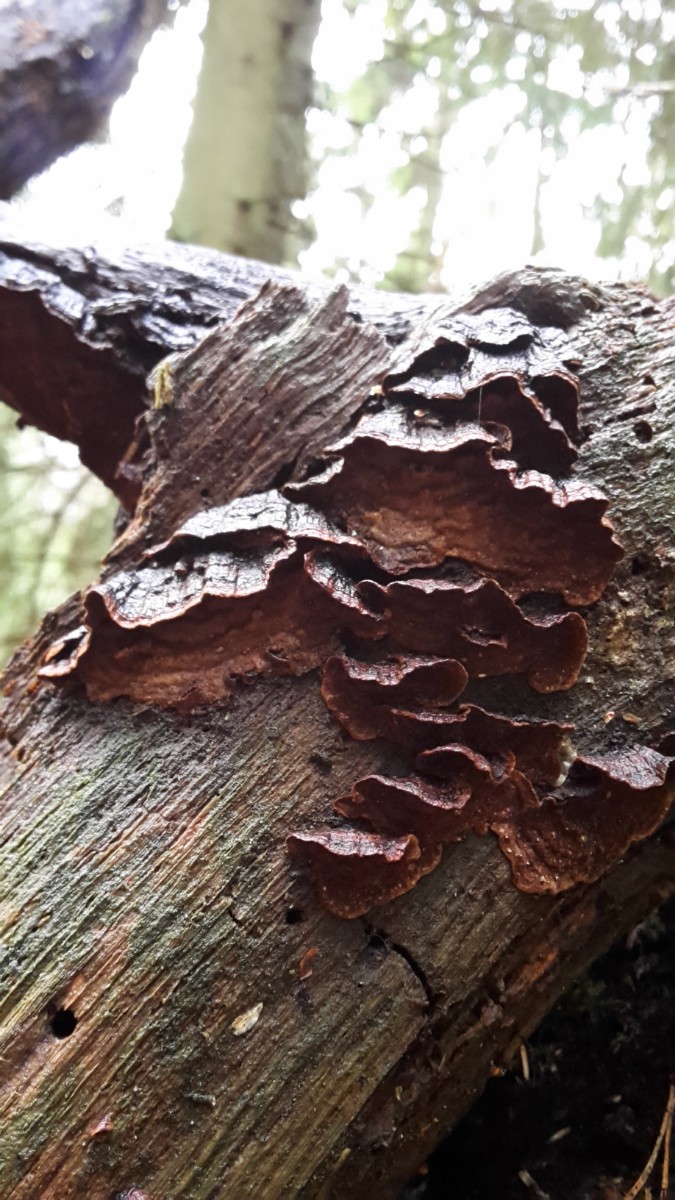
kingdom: Fungi
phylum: Basidiomycota
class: Agaricomycetes
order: Hymenochaetales
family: Hymenochaetaceae
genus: Hymenochaete
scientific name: Hymenochaete rubiginosa
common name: stiv ruslædersvamp
